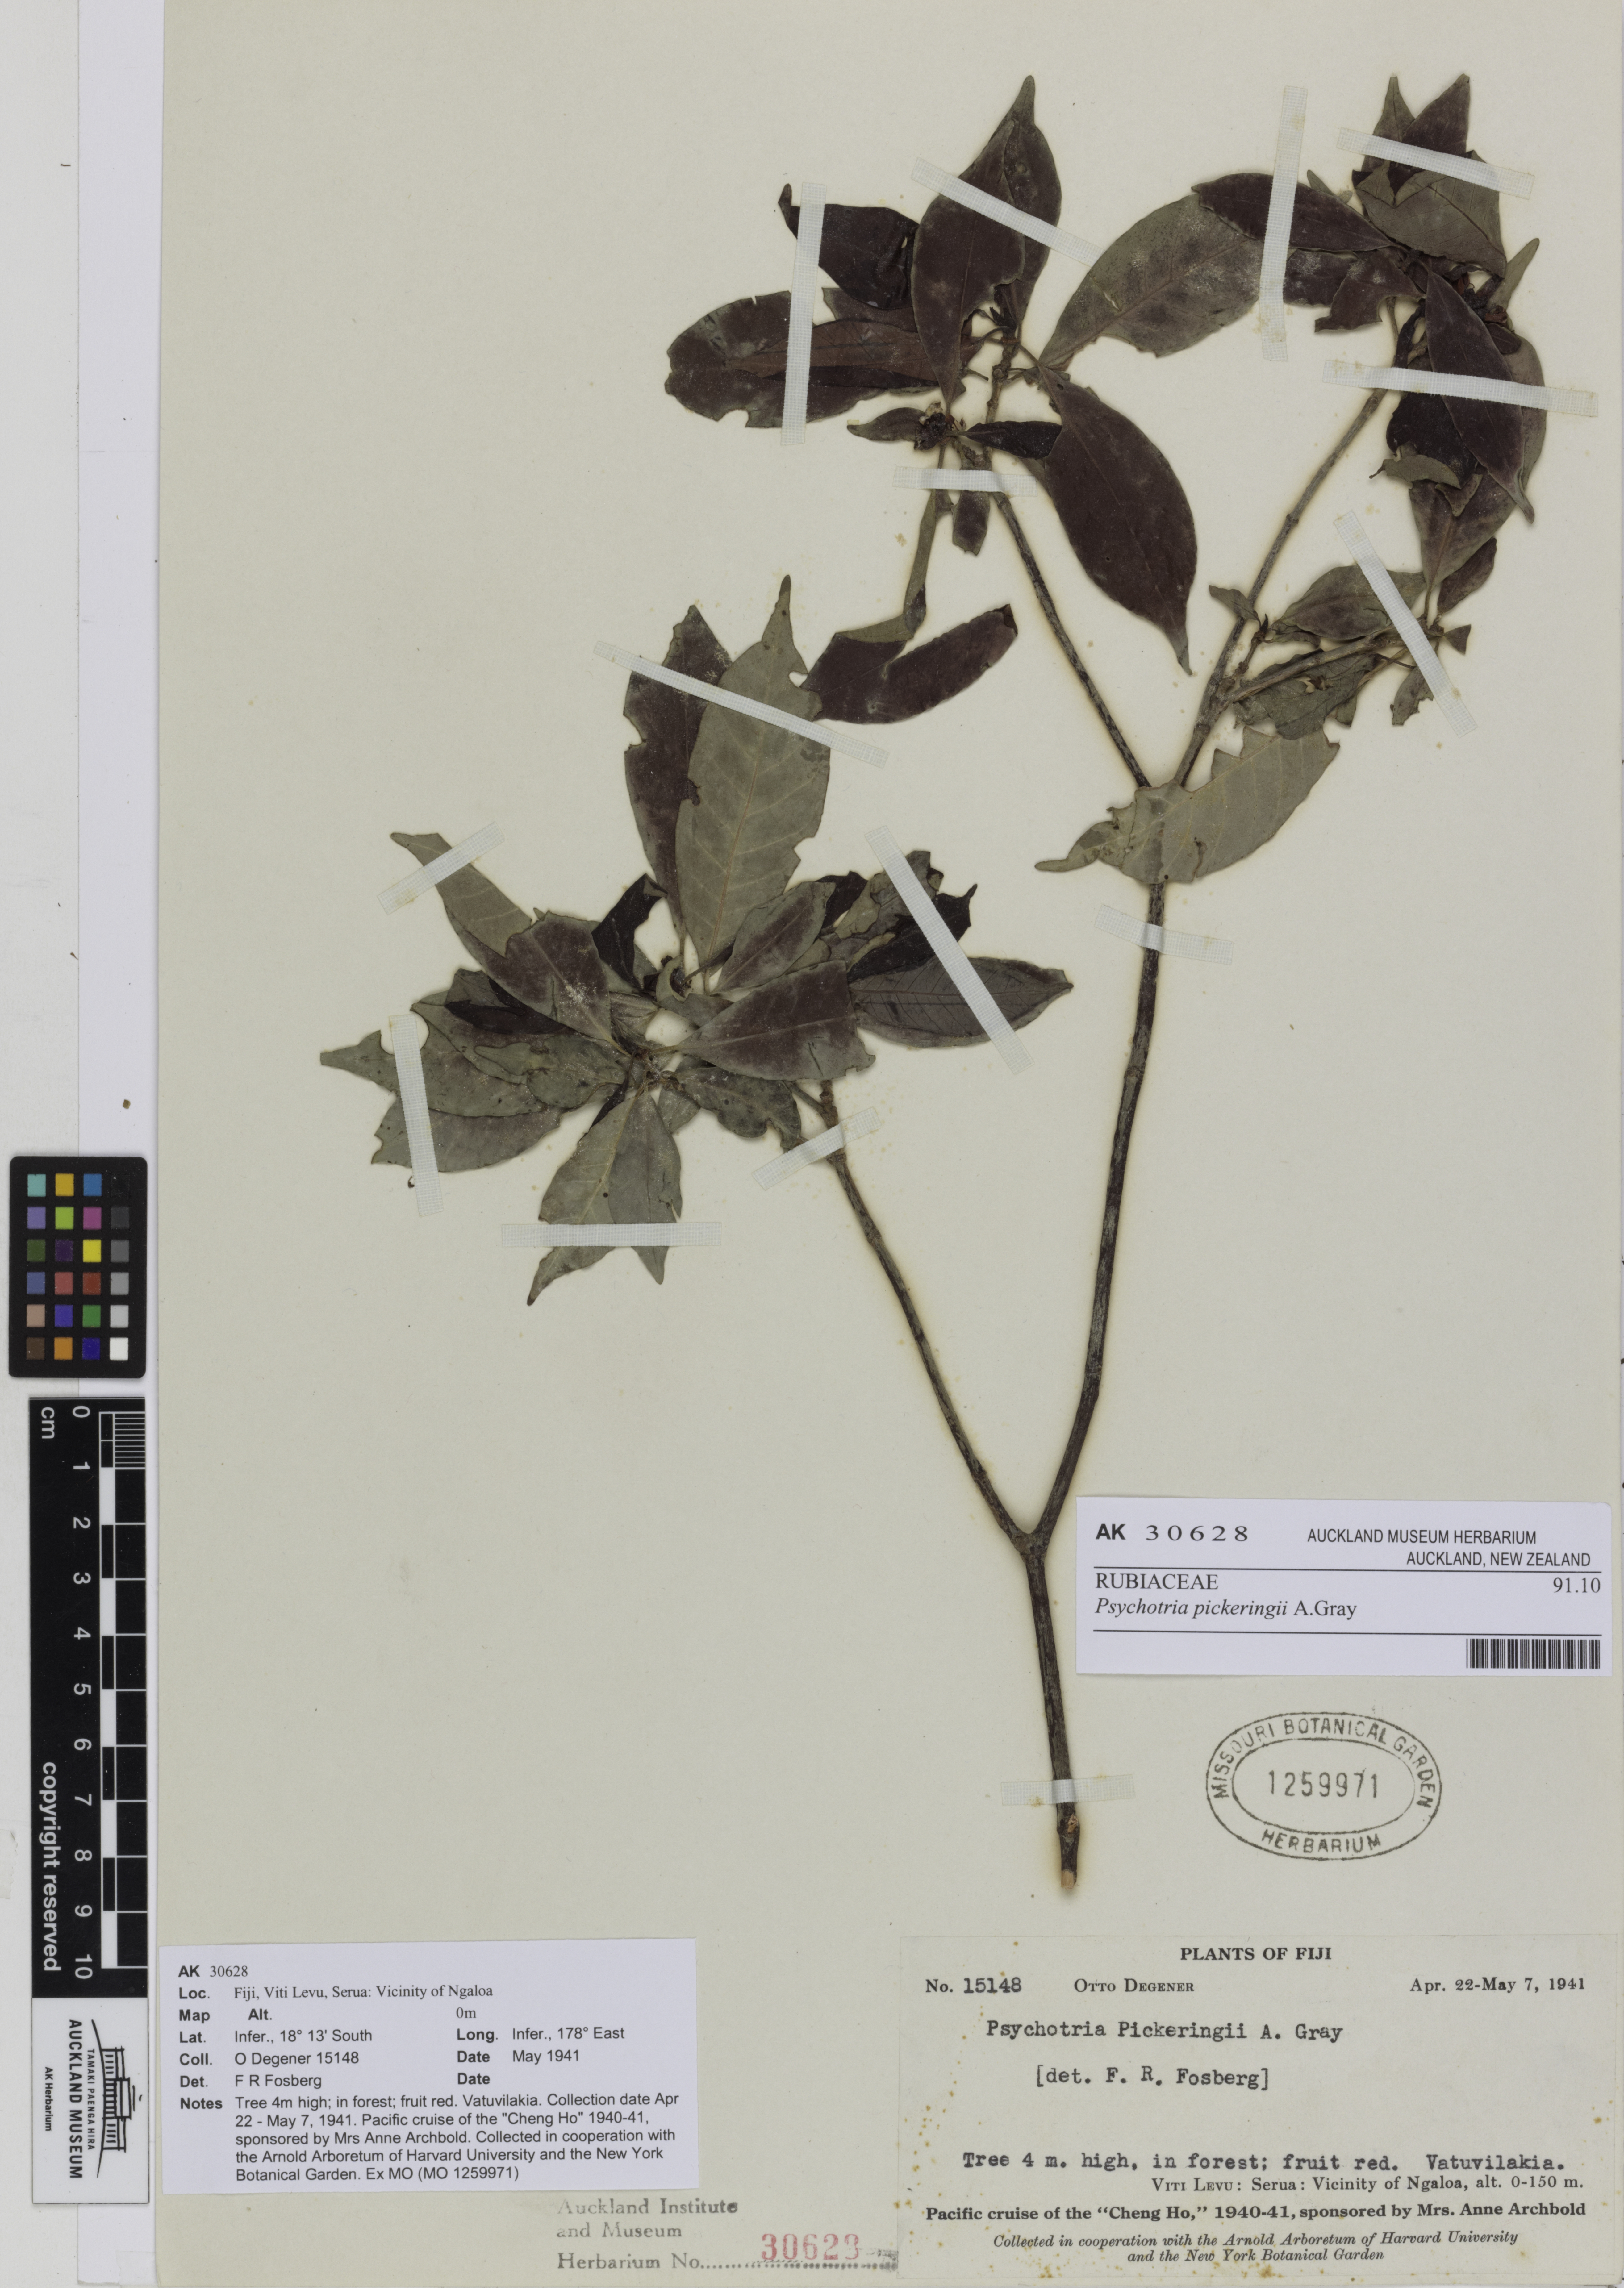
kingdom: Plantae
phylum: Tracheophyta
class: Magnoliopsida
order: Gentianales
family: Rubiaceae
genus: Psychotria
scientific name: Psychotria pickeringii
